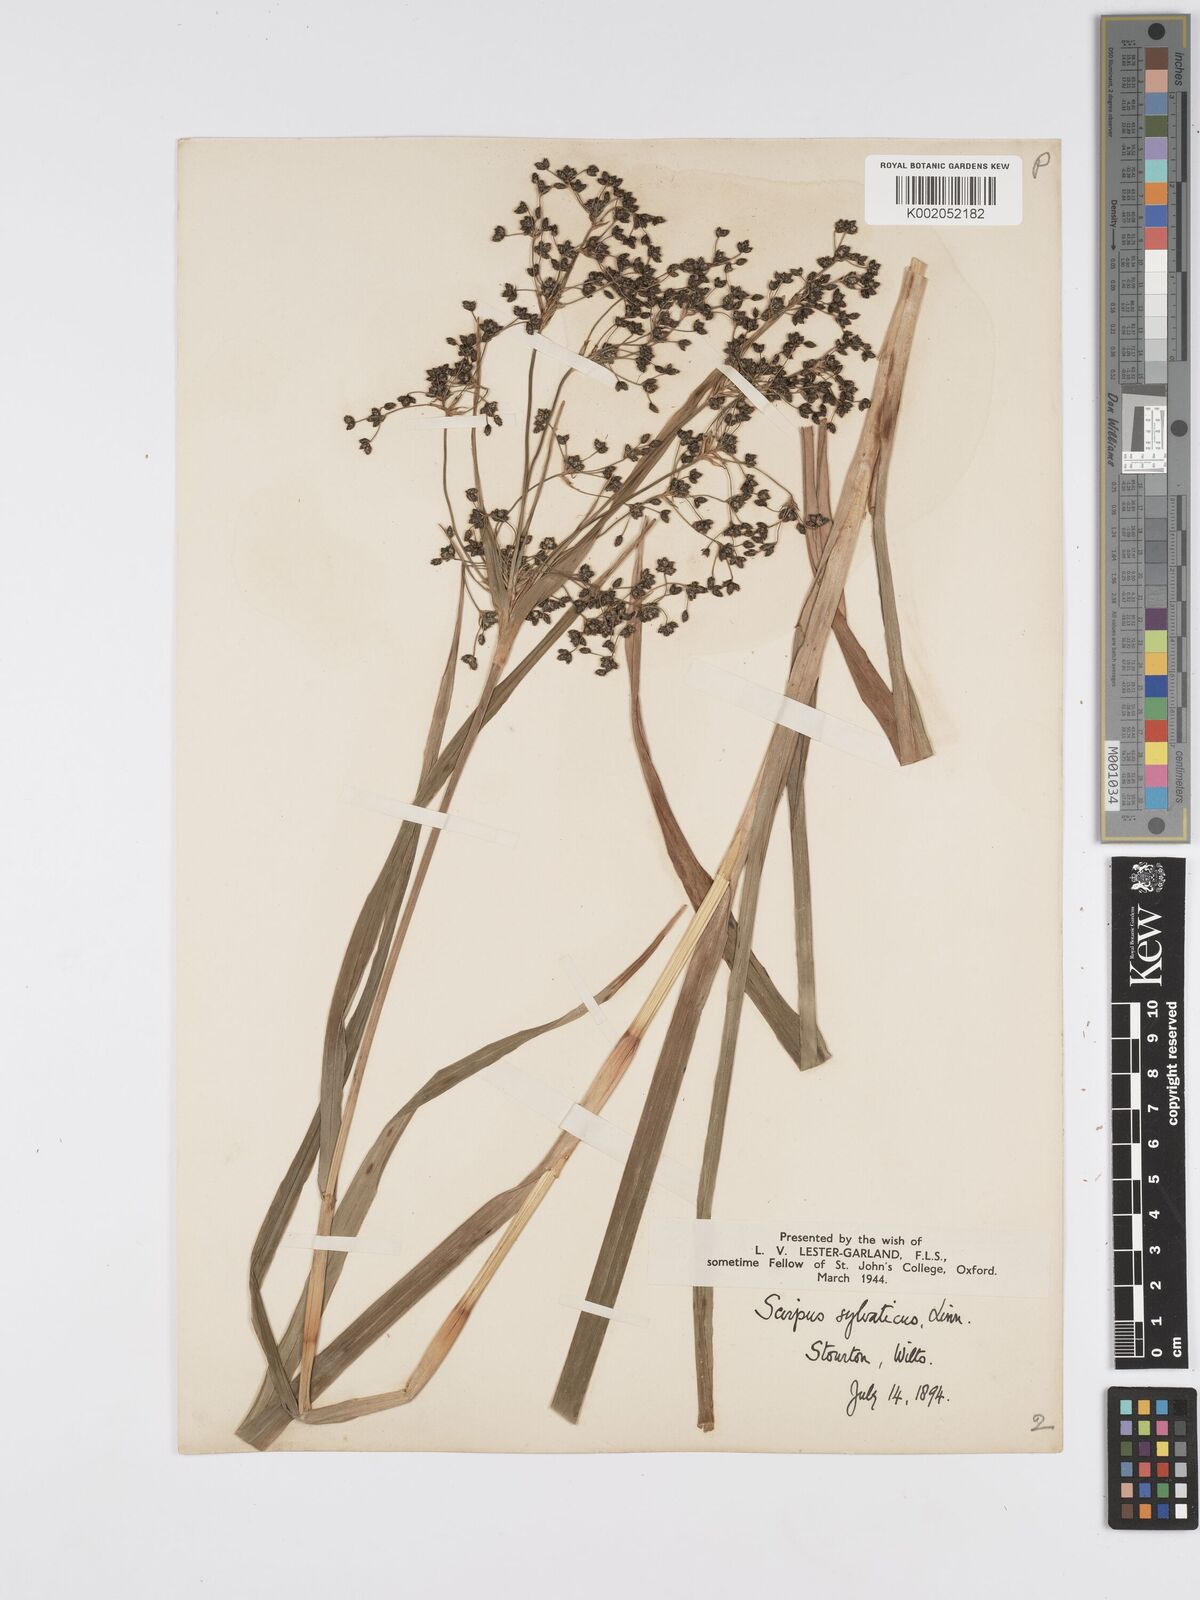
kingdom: Plantae
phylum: Tracheophyta
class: Liliopsida
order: Poales
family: Cyperaceae
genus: Scirpus
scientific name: Scirpus sylvaticus
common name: Wood club-rush
